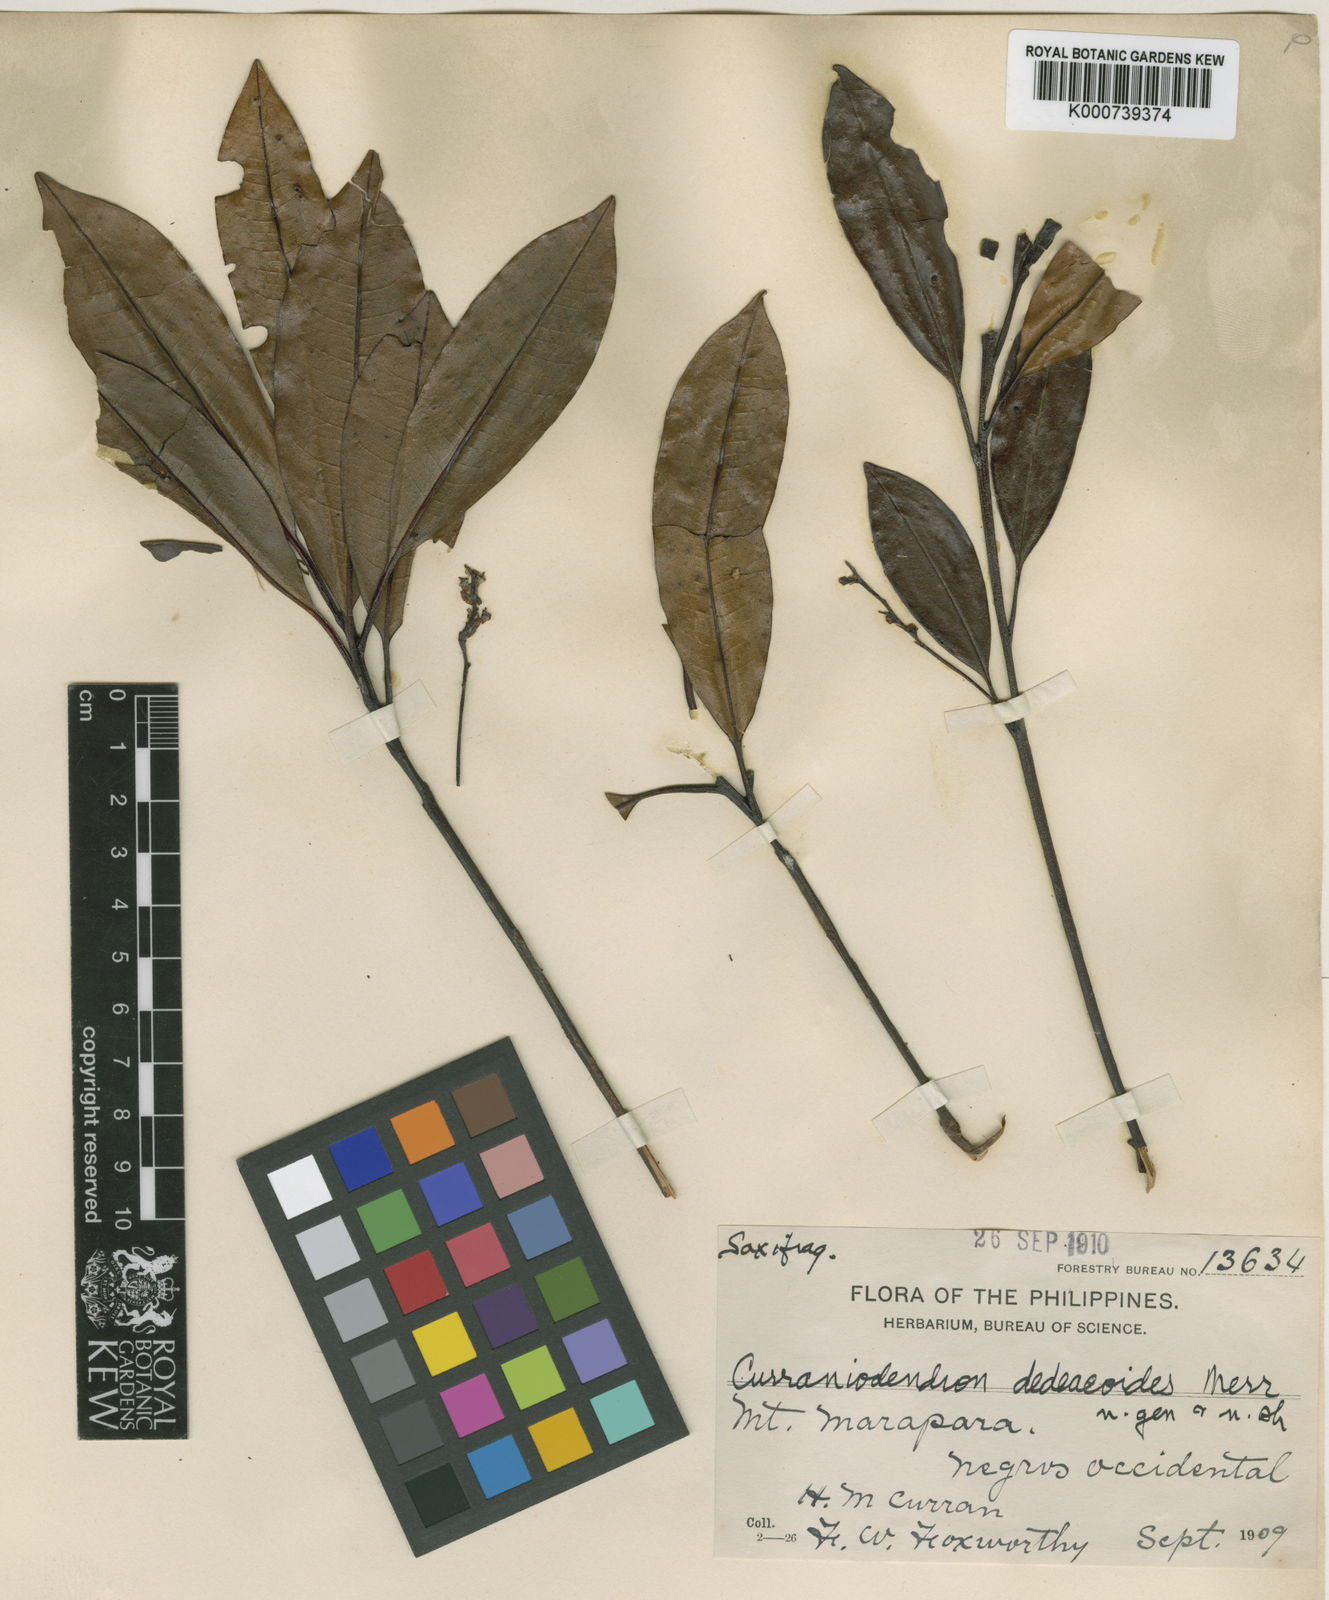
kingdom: Plantae
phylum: Tracheophyta
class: Magnoliopsida
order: Paracryphiales
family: Paracryphiaceae
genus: Quintinia
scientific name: Quintinia
